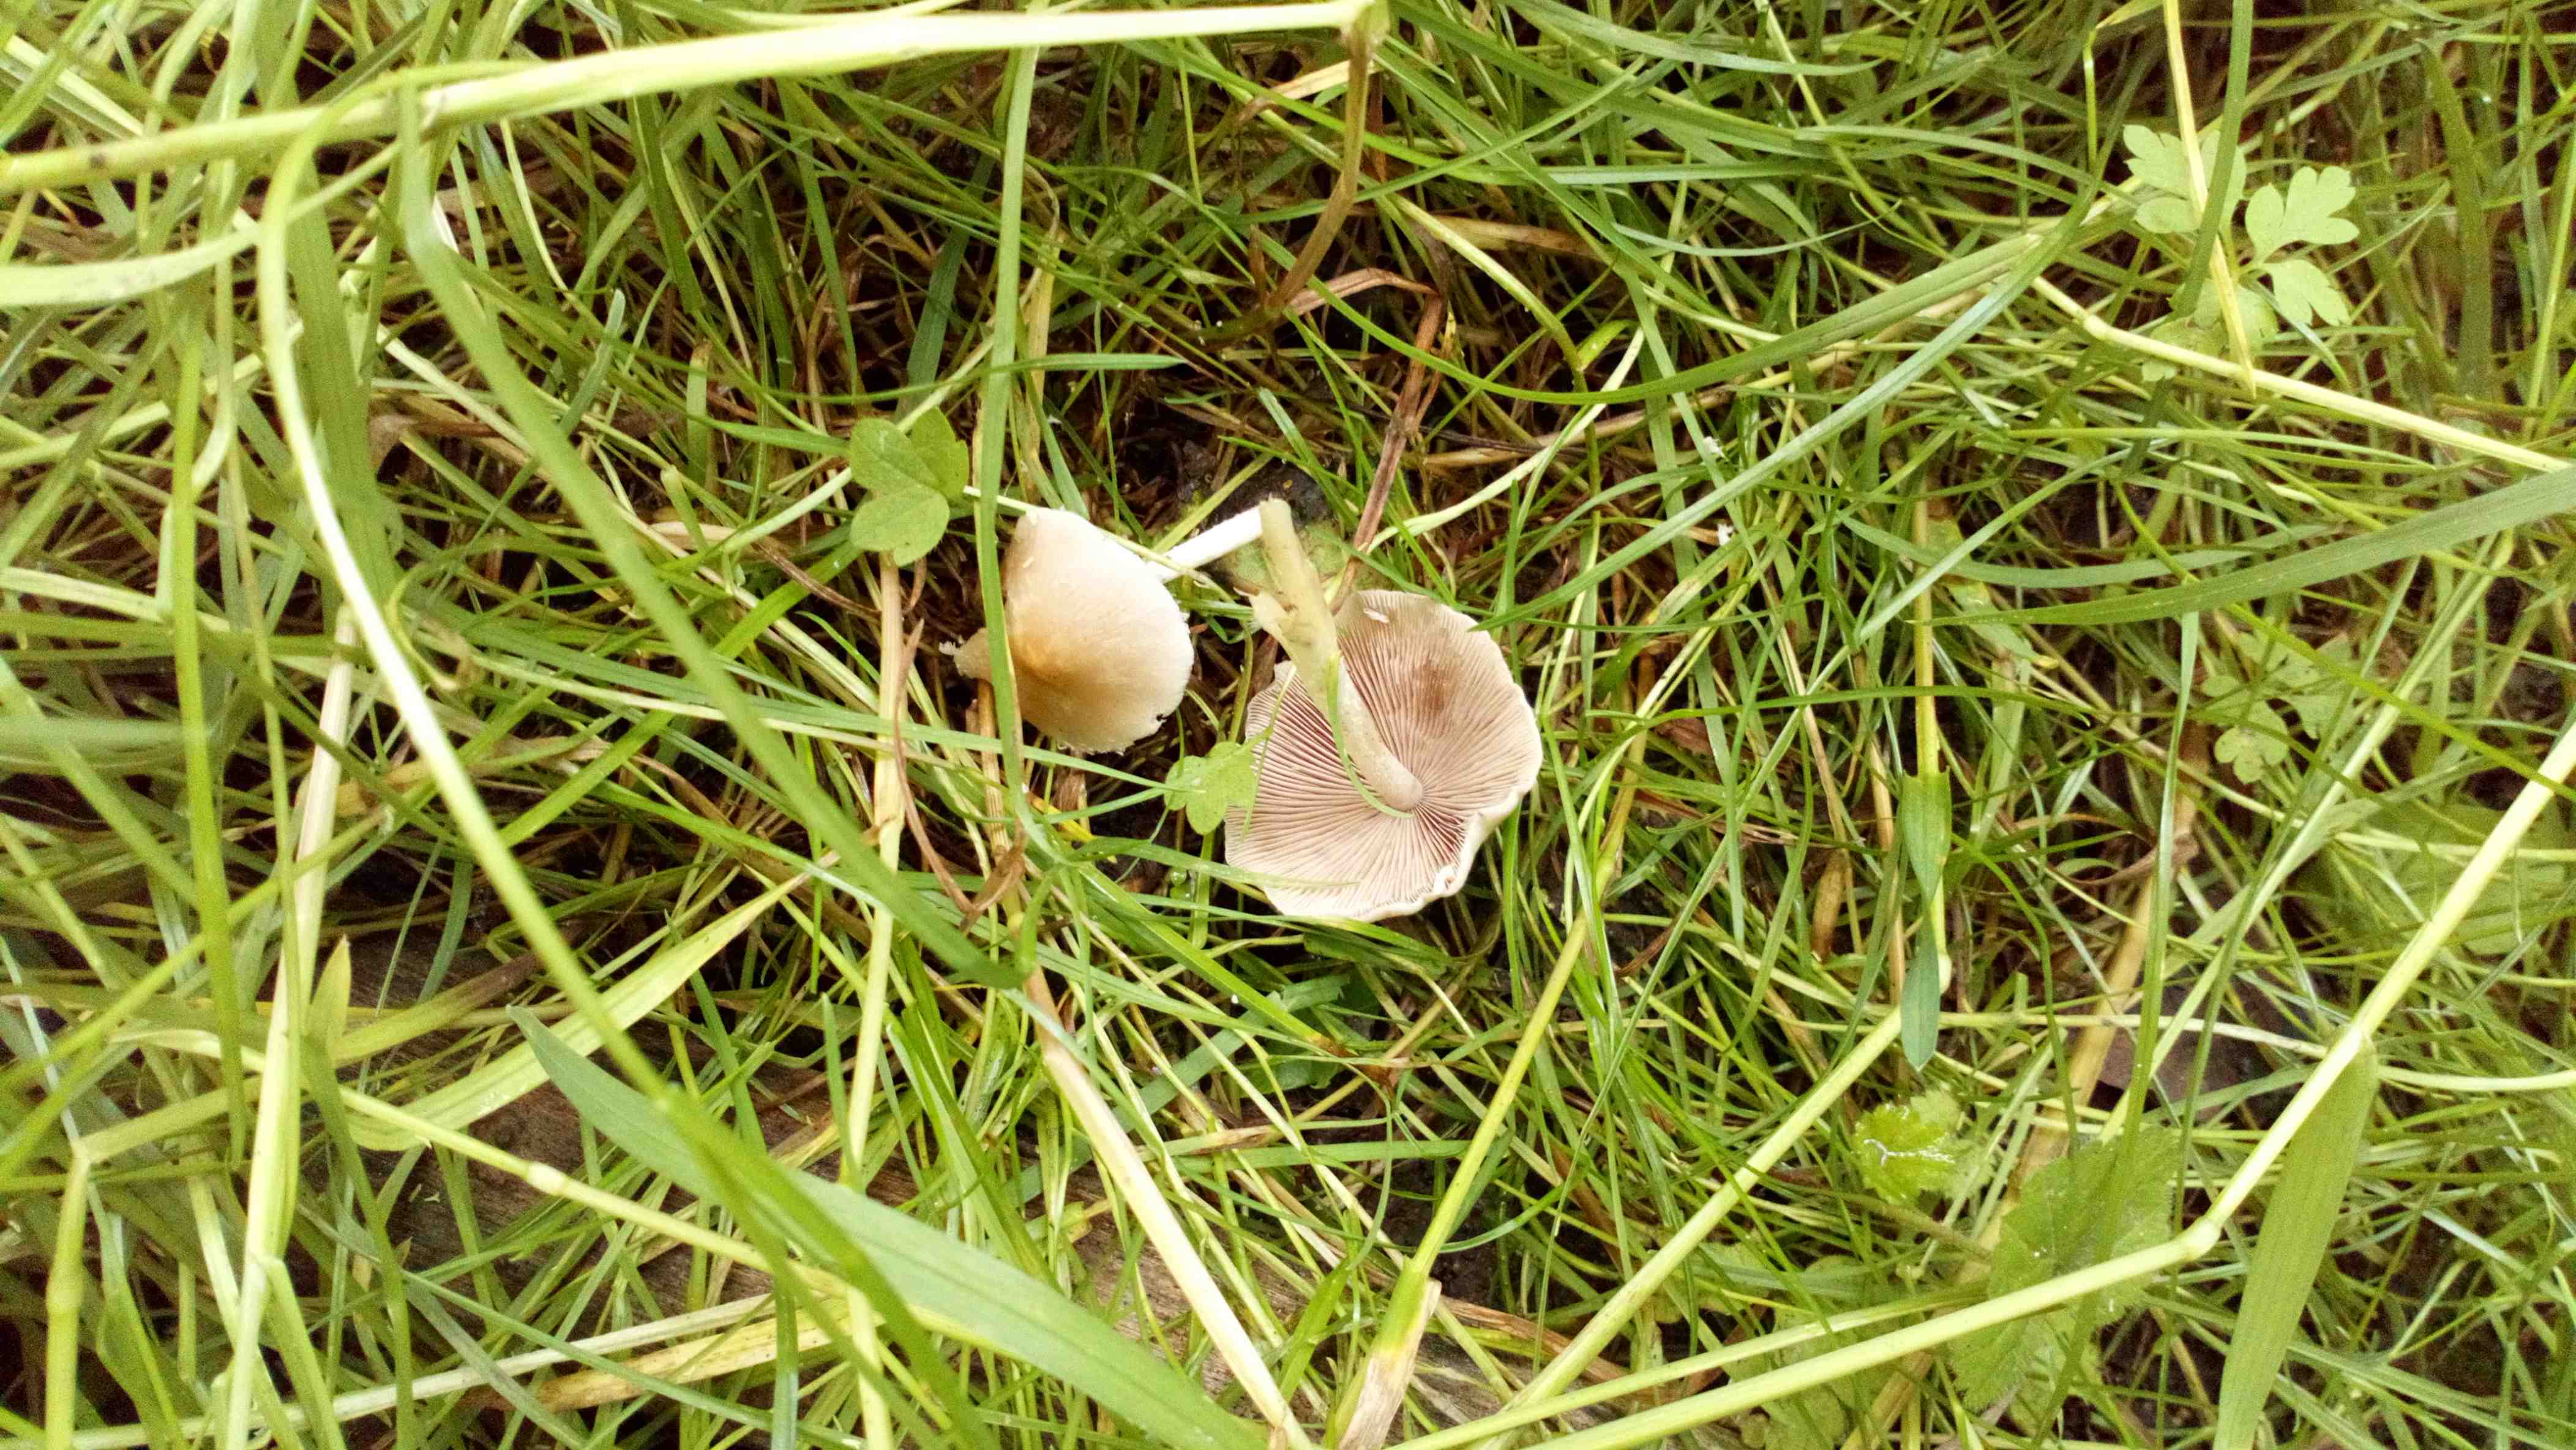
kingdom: Fungi
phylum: Basidiomycota
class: Agaricomycetes
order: Agaricales
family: Psathyrellaceae
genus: Candolleomyces
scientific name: Candolleomyces candolleanus
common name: Candolles mørkhat
